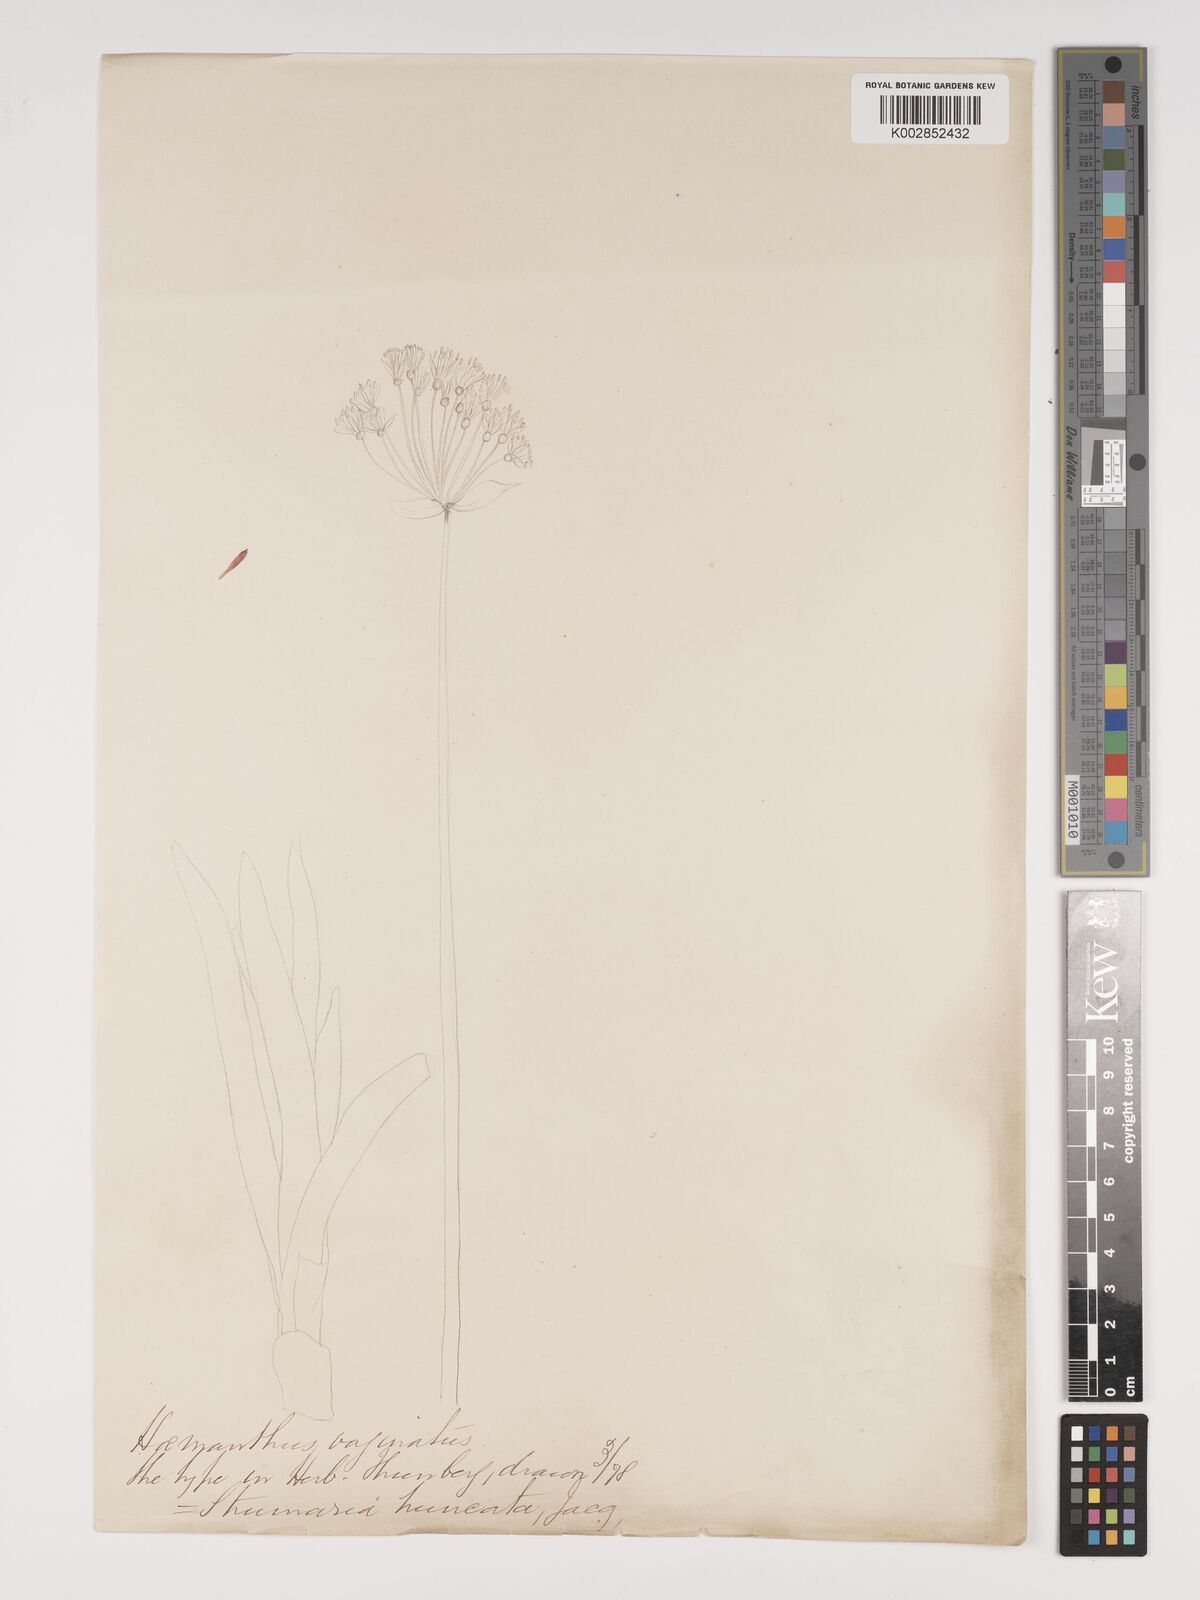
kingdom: Plantae
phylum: Tracheophyta
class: Liliopsida
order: Asparagales
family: Amaryllidaceae
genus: Strumaria
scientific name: Strumaria truncata
